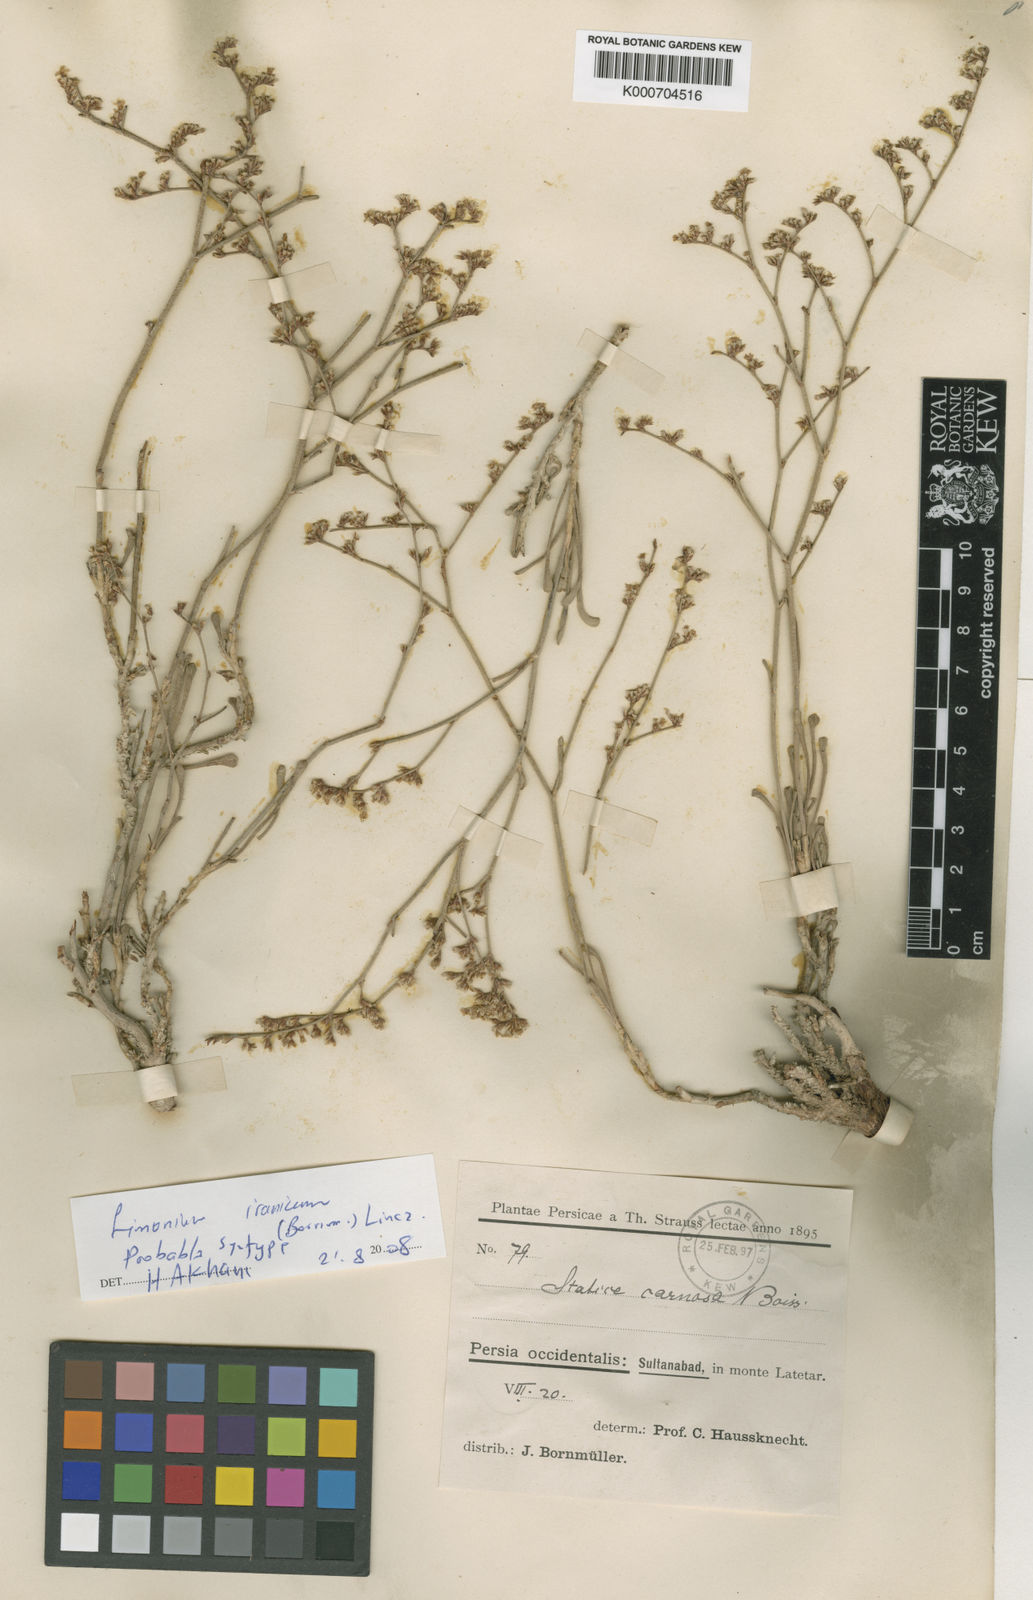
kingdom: Plantae
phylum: Tracheophyta
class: Magnoliopsida
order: Caryophyllales
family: Plumbaginaceae
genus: Limonium
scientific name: Limonium carnosum
